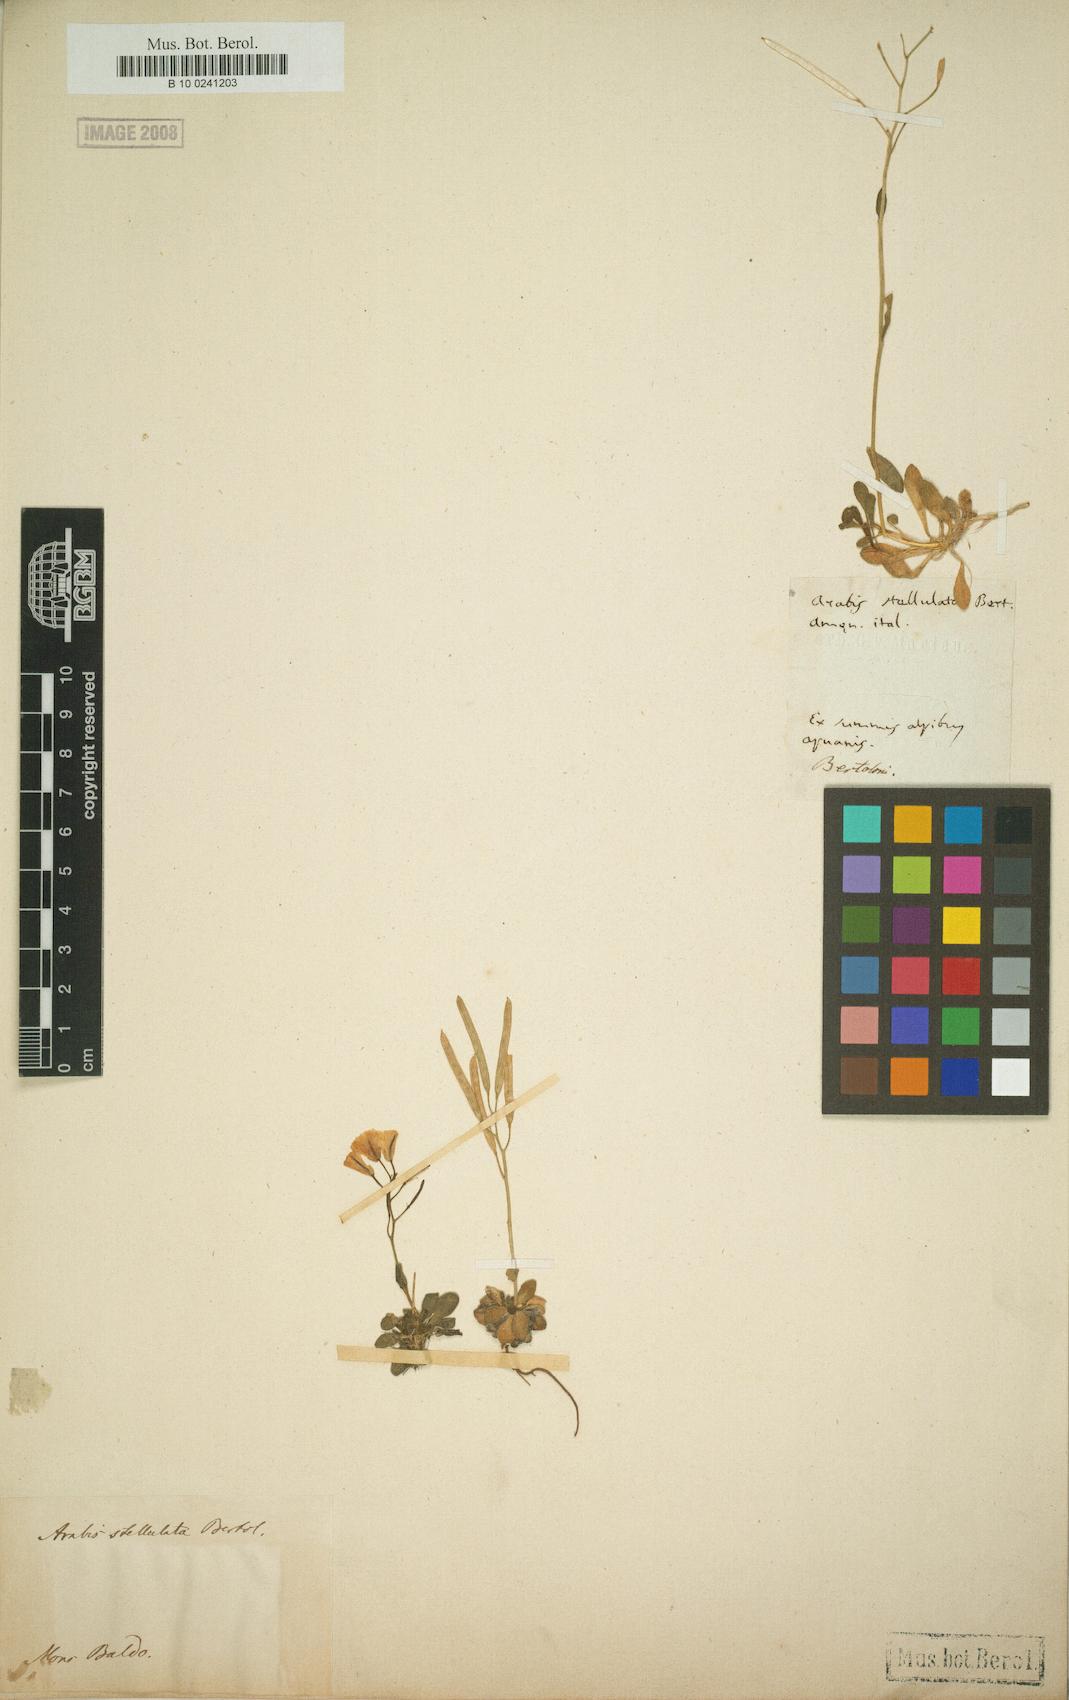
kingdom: Plantae
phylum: Tracheophyta
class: Magnoliopsida
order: Brassicales
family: Brassicaceae
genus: Arabis
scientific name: Arabis stellulata
